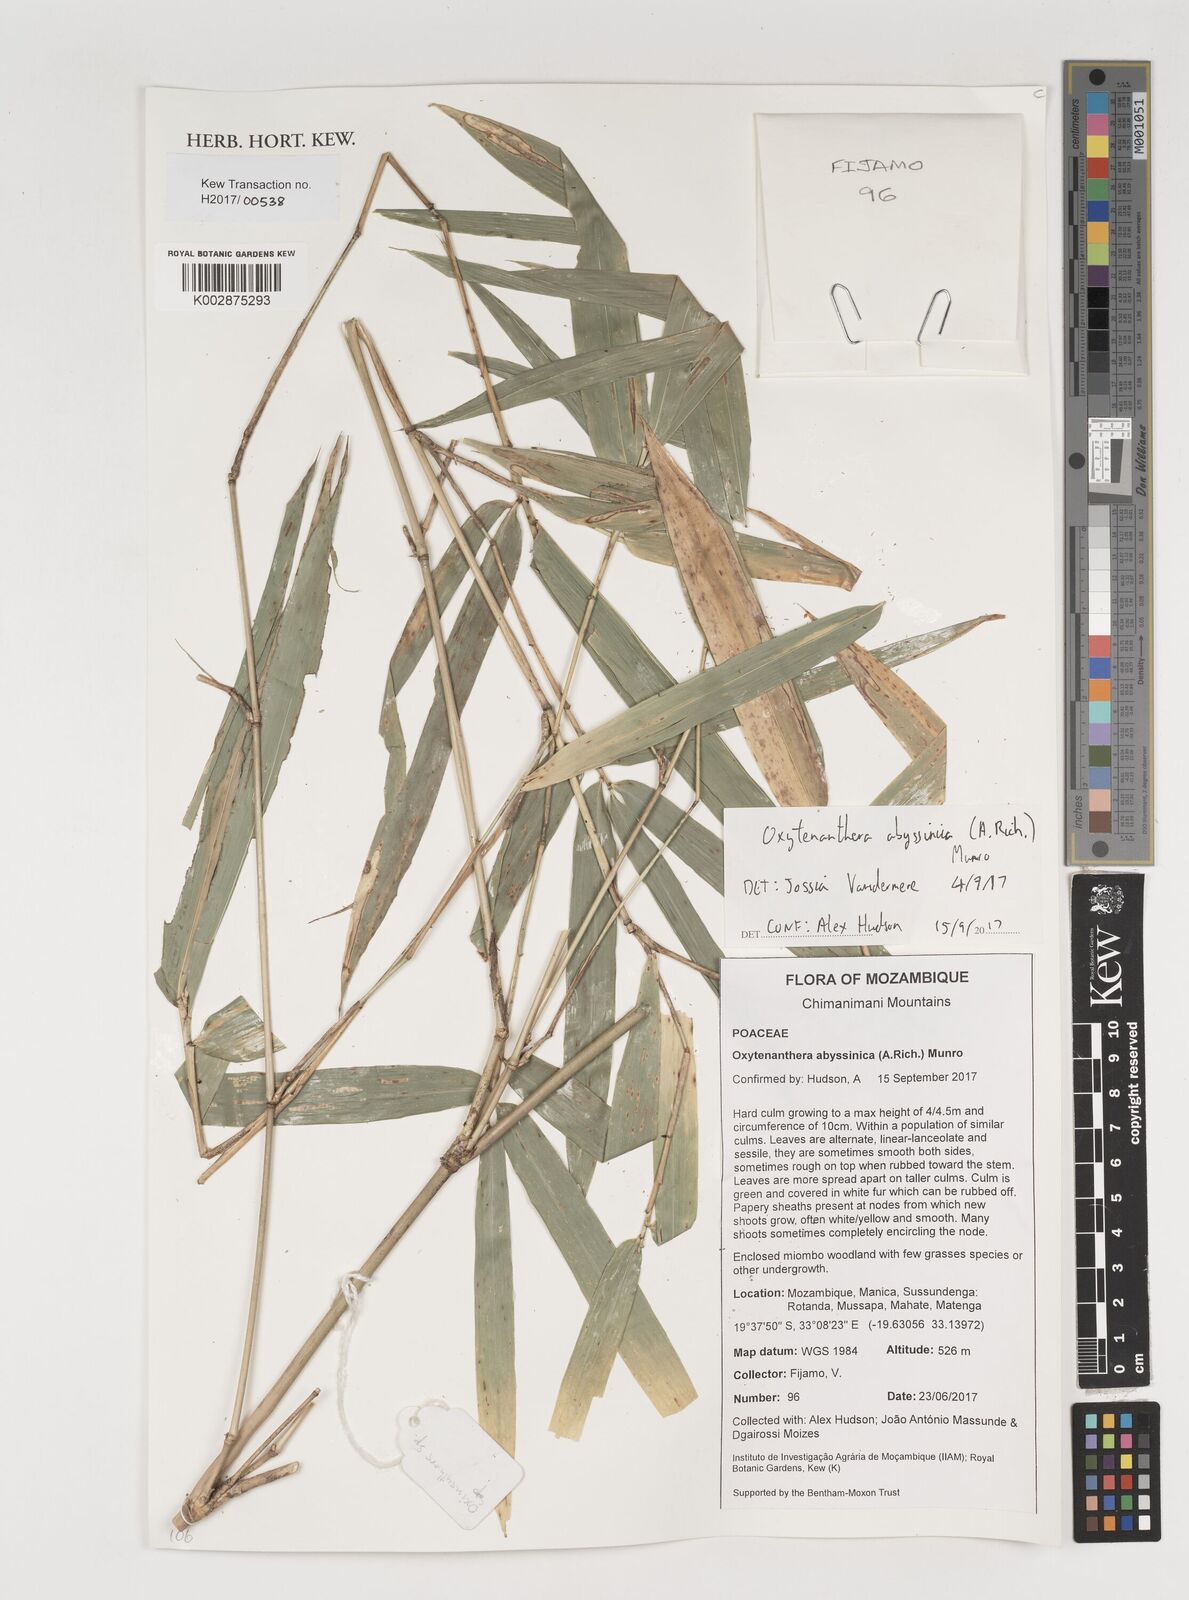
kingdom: Plantae
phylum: Tracheophyta
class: Liliopsida
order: Poales
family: Poaceae
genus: Oxytenanthera
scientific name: Oxytenanthera abyssinica
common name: Wine bamboo
